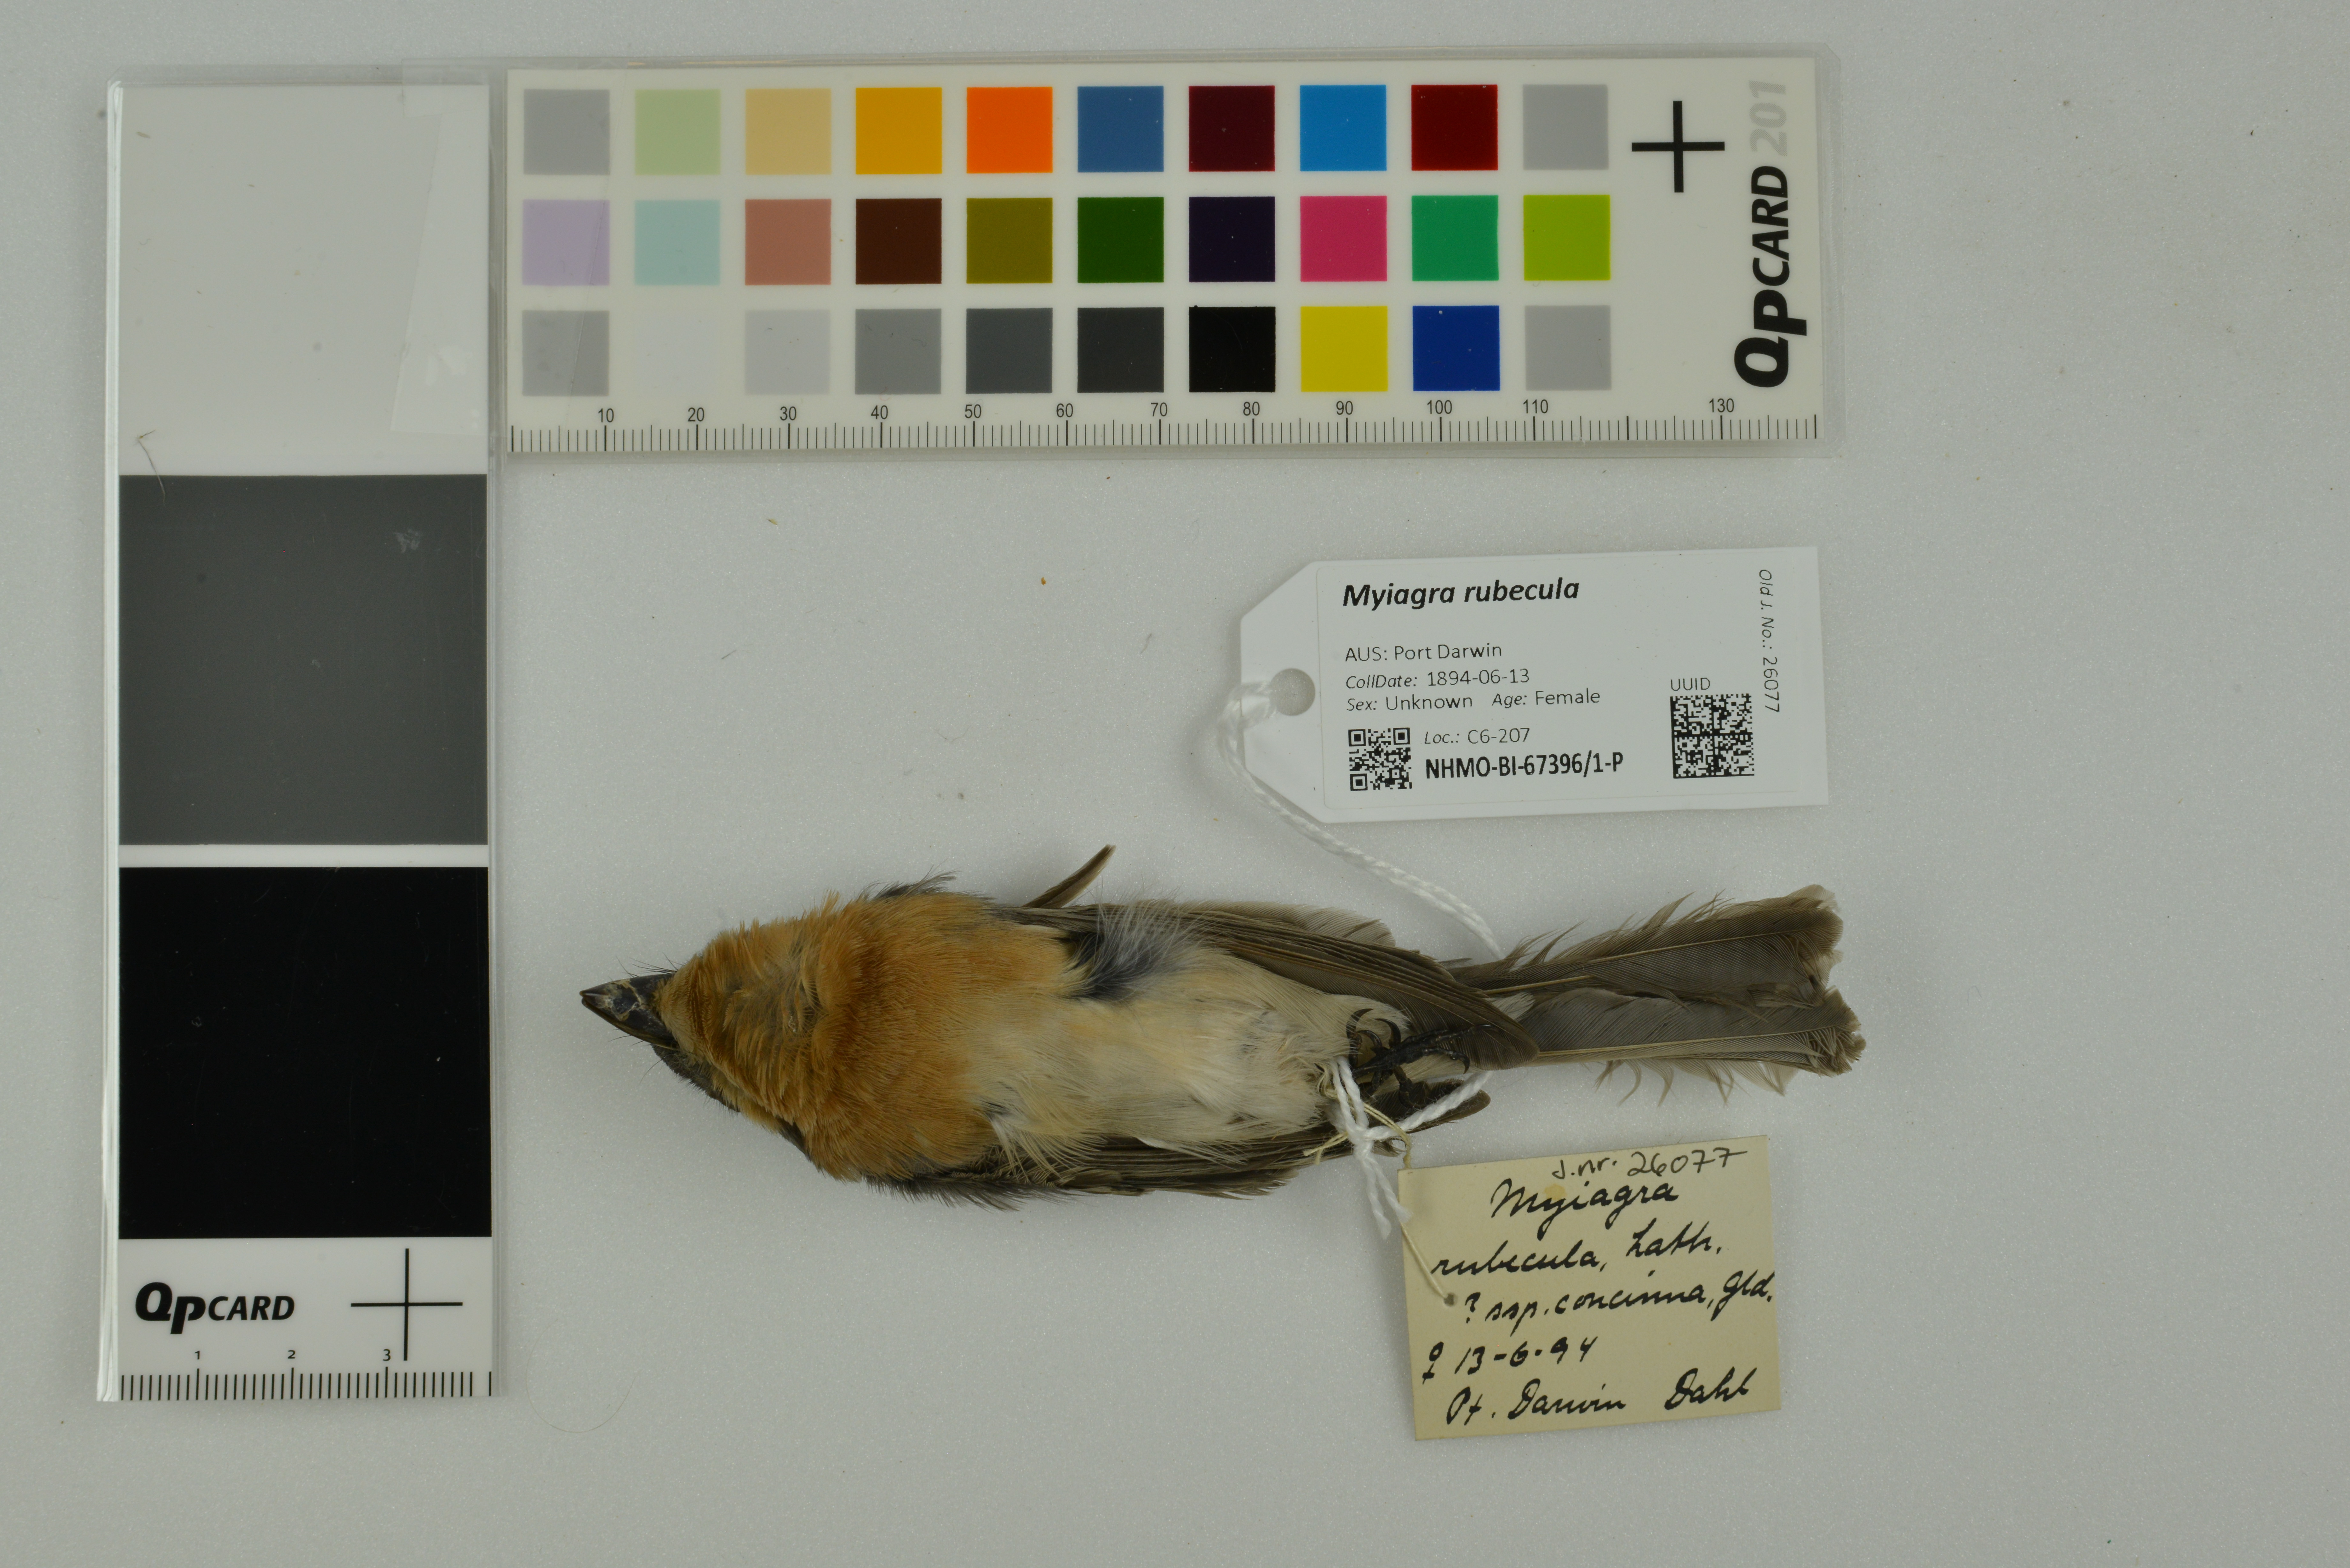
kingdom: Animalia
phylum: Chordata
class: Aves
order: Passeriformes
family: Monarchidae
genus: Myiagra
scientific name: Myiagra rubecula
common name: Leaden flycatcher
